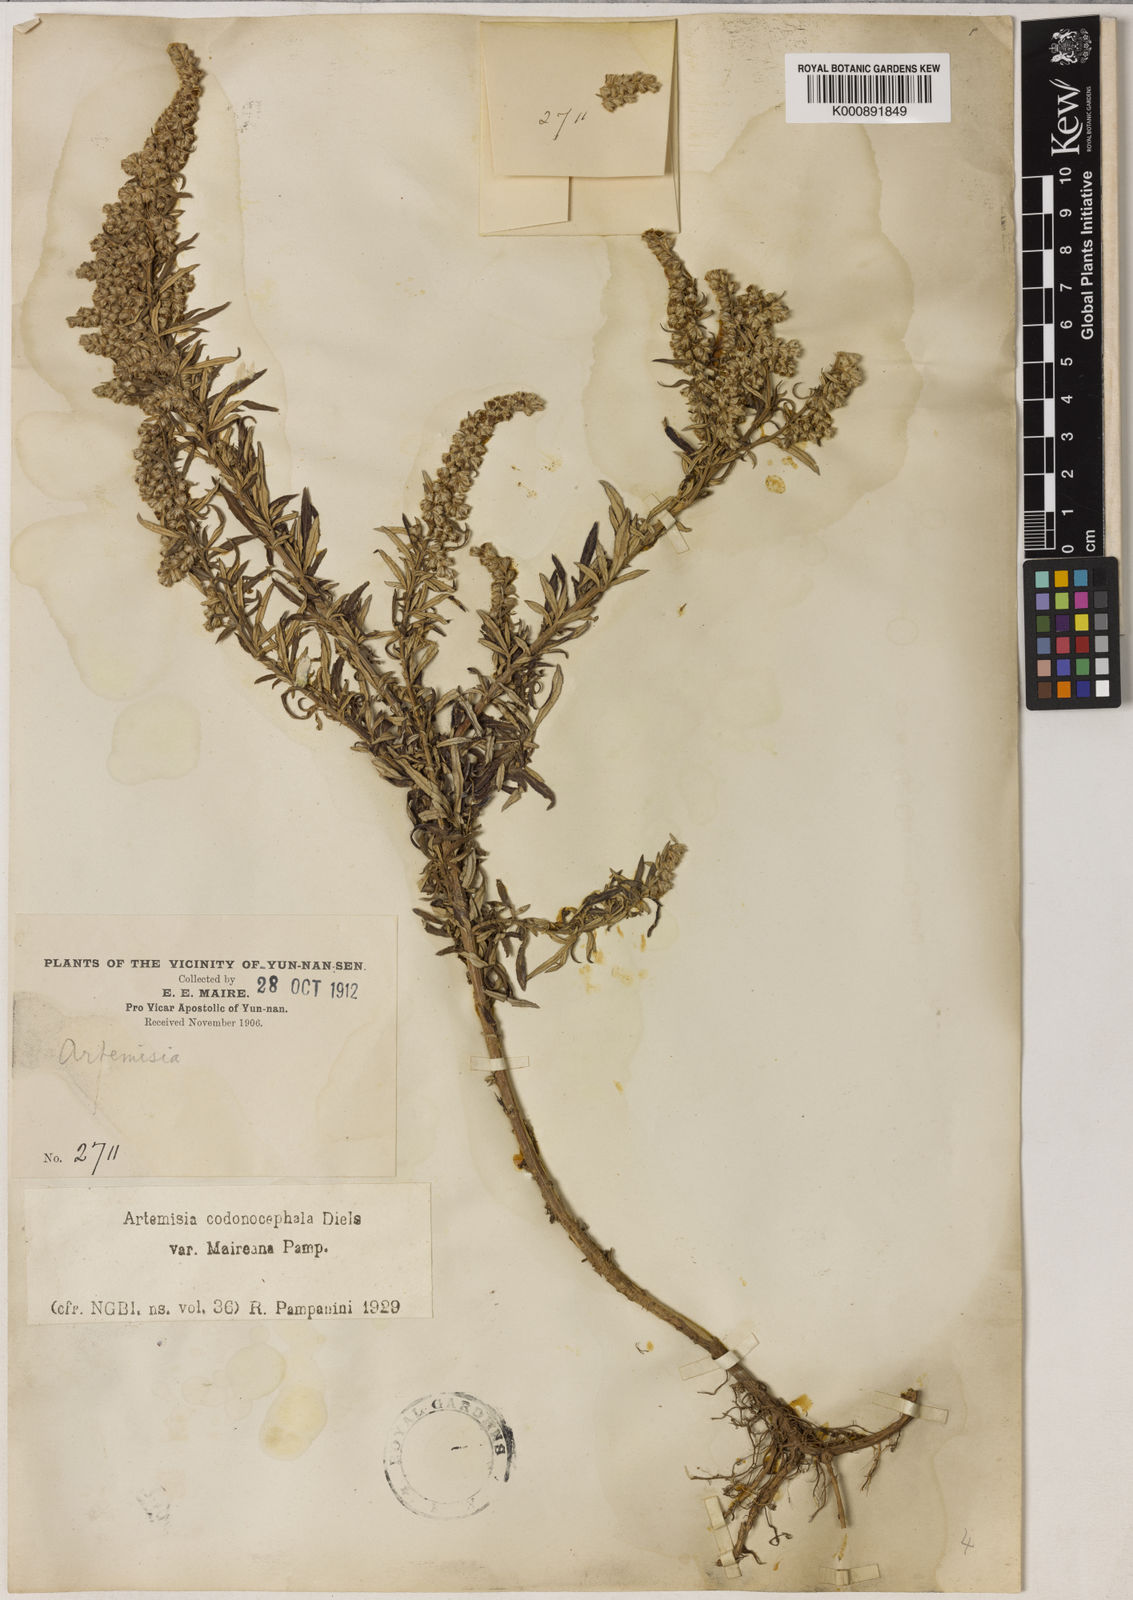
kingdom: Plantae
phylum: Tracheophyta
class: Magnoliopsida
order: Asterales
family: Asteraceae
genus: Artemisia
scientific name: Artemisia
